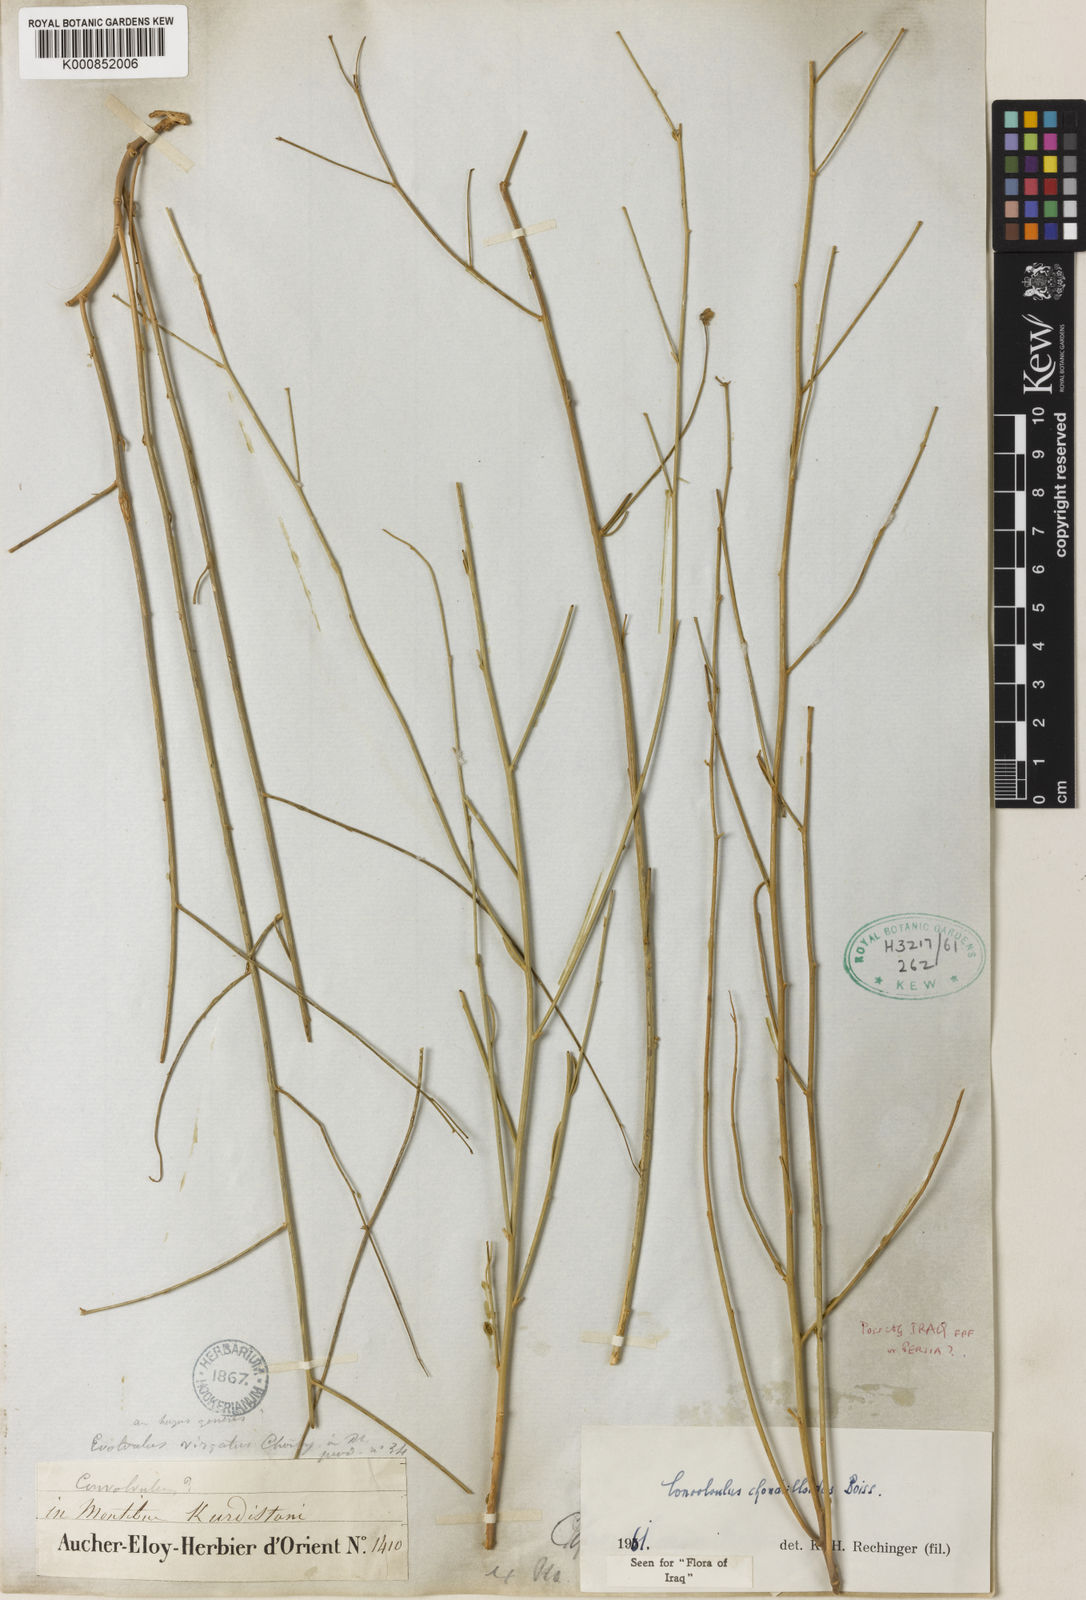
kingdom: Plantae
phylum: Tracheophyta
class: Magnoliopsida
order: Solanales
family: Convolvulaceae
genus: Convolvulus
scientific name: Convolvulus chondrilloides
